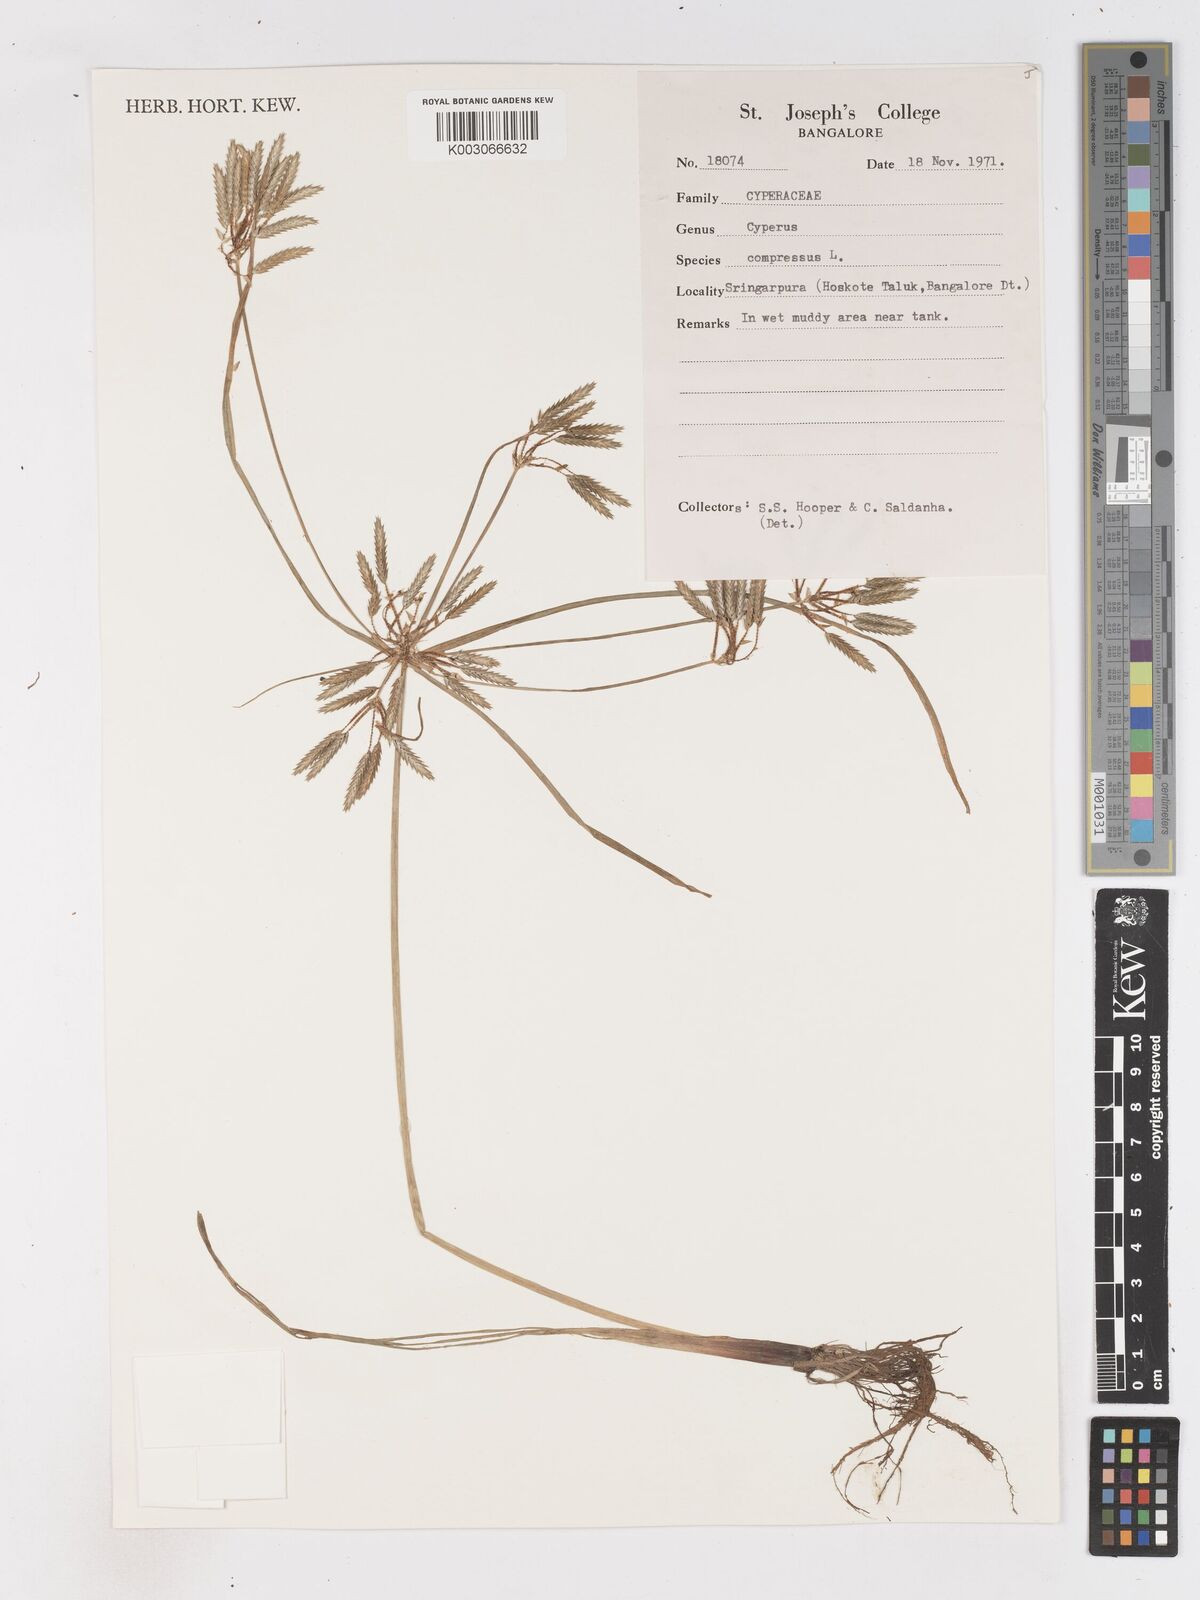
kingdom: Plantae
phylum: Tracheophyta
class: Liliopsida
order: Poales
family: Cyperaceae
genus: Cyperus
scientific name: Cyperus compressus
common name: Poorland flatsedge
